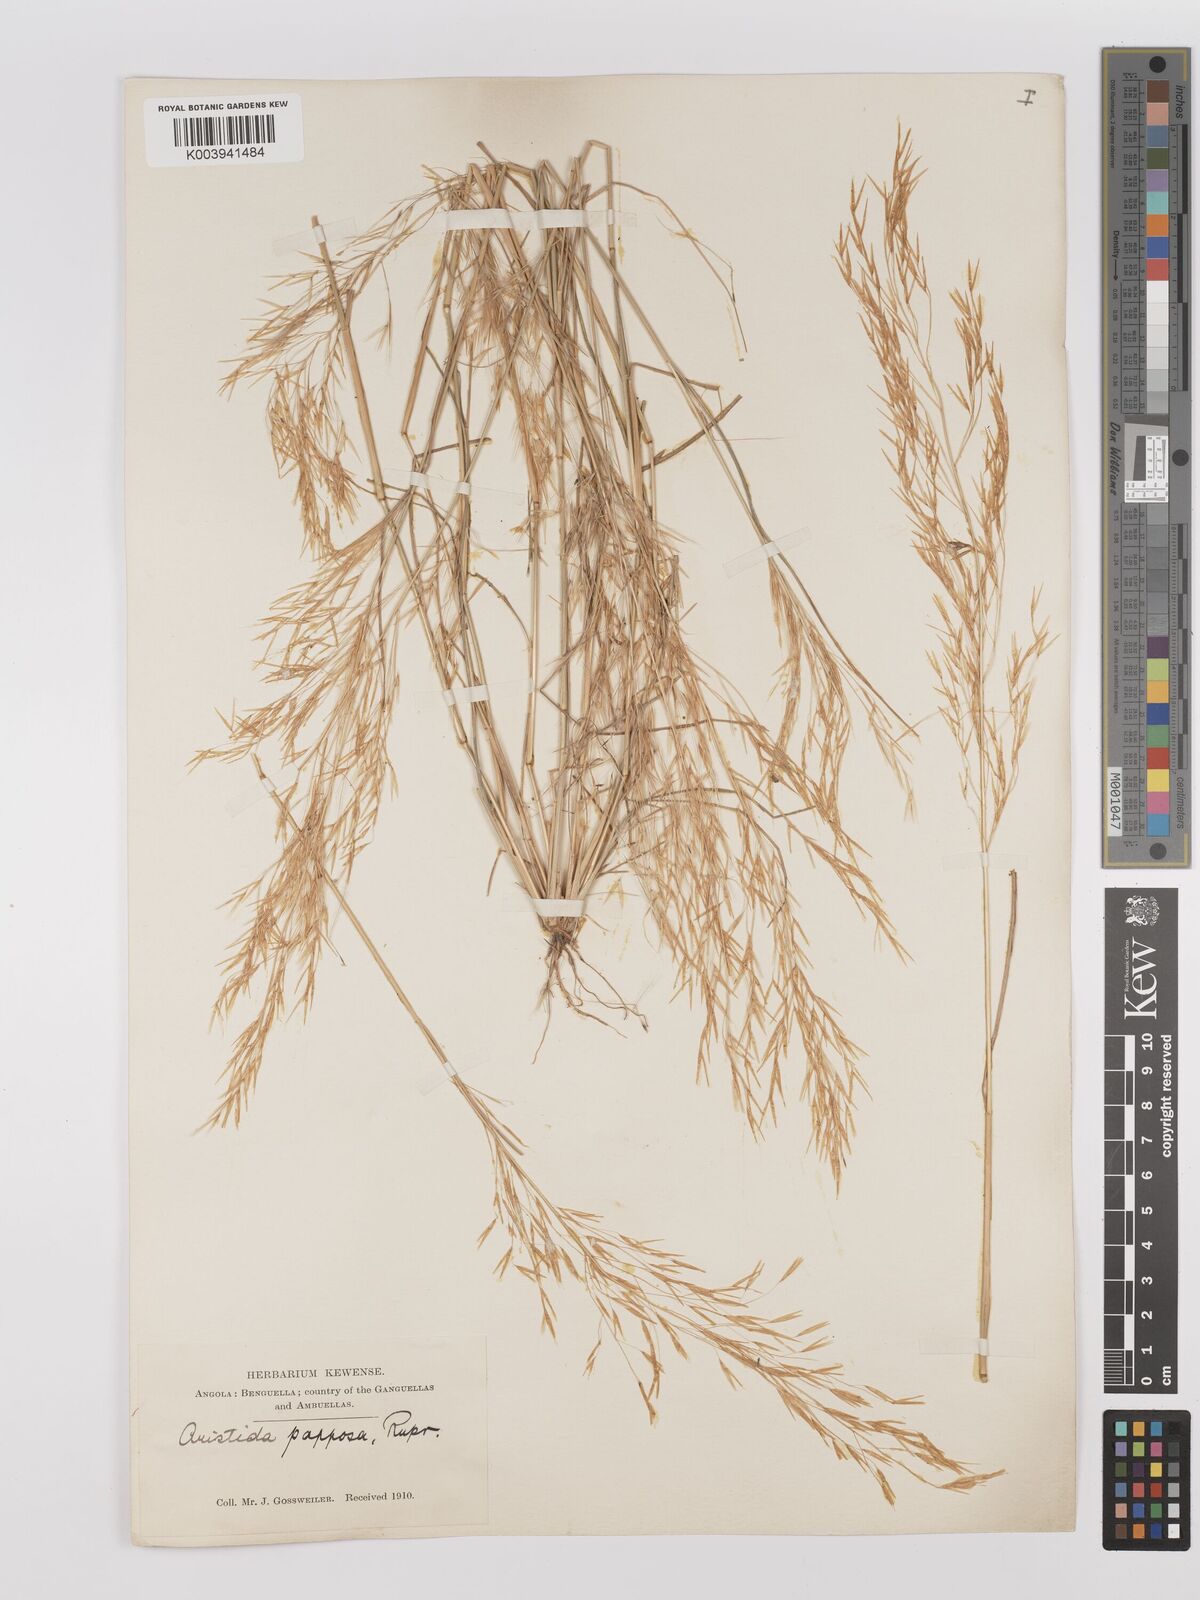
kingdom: Plantae
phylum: Tracheophyta
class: Liliopsida
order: Poales
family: Poaceae
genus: Stipagrostis
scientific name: Stipagrostis uniplumis
